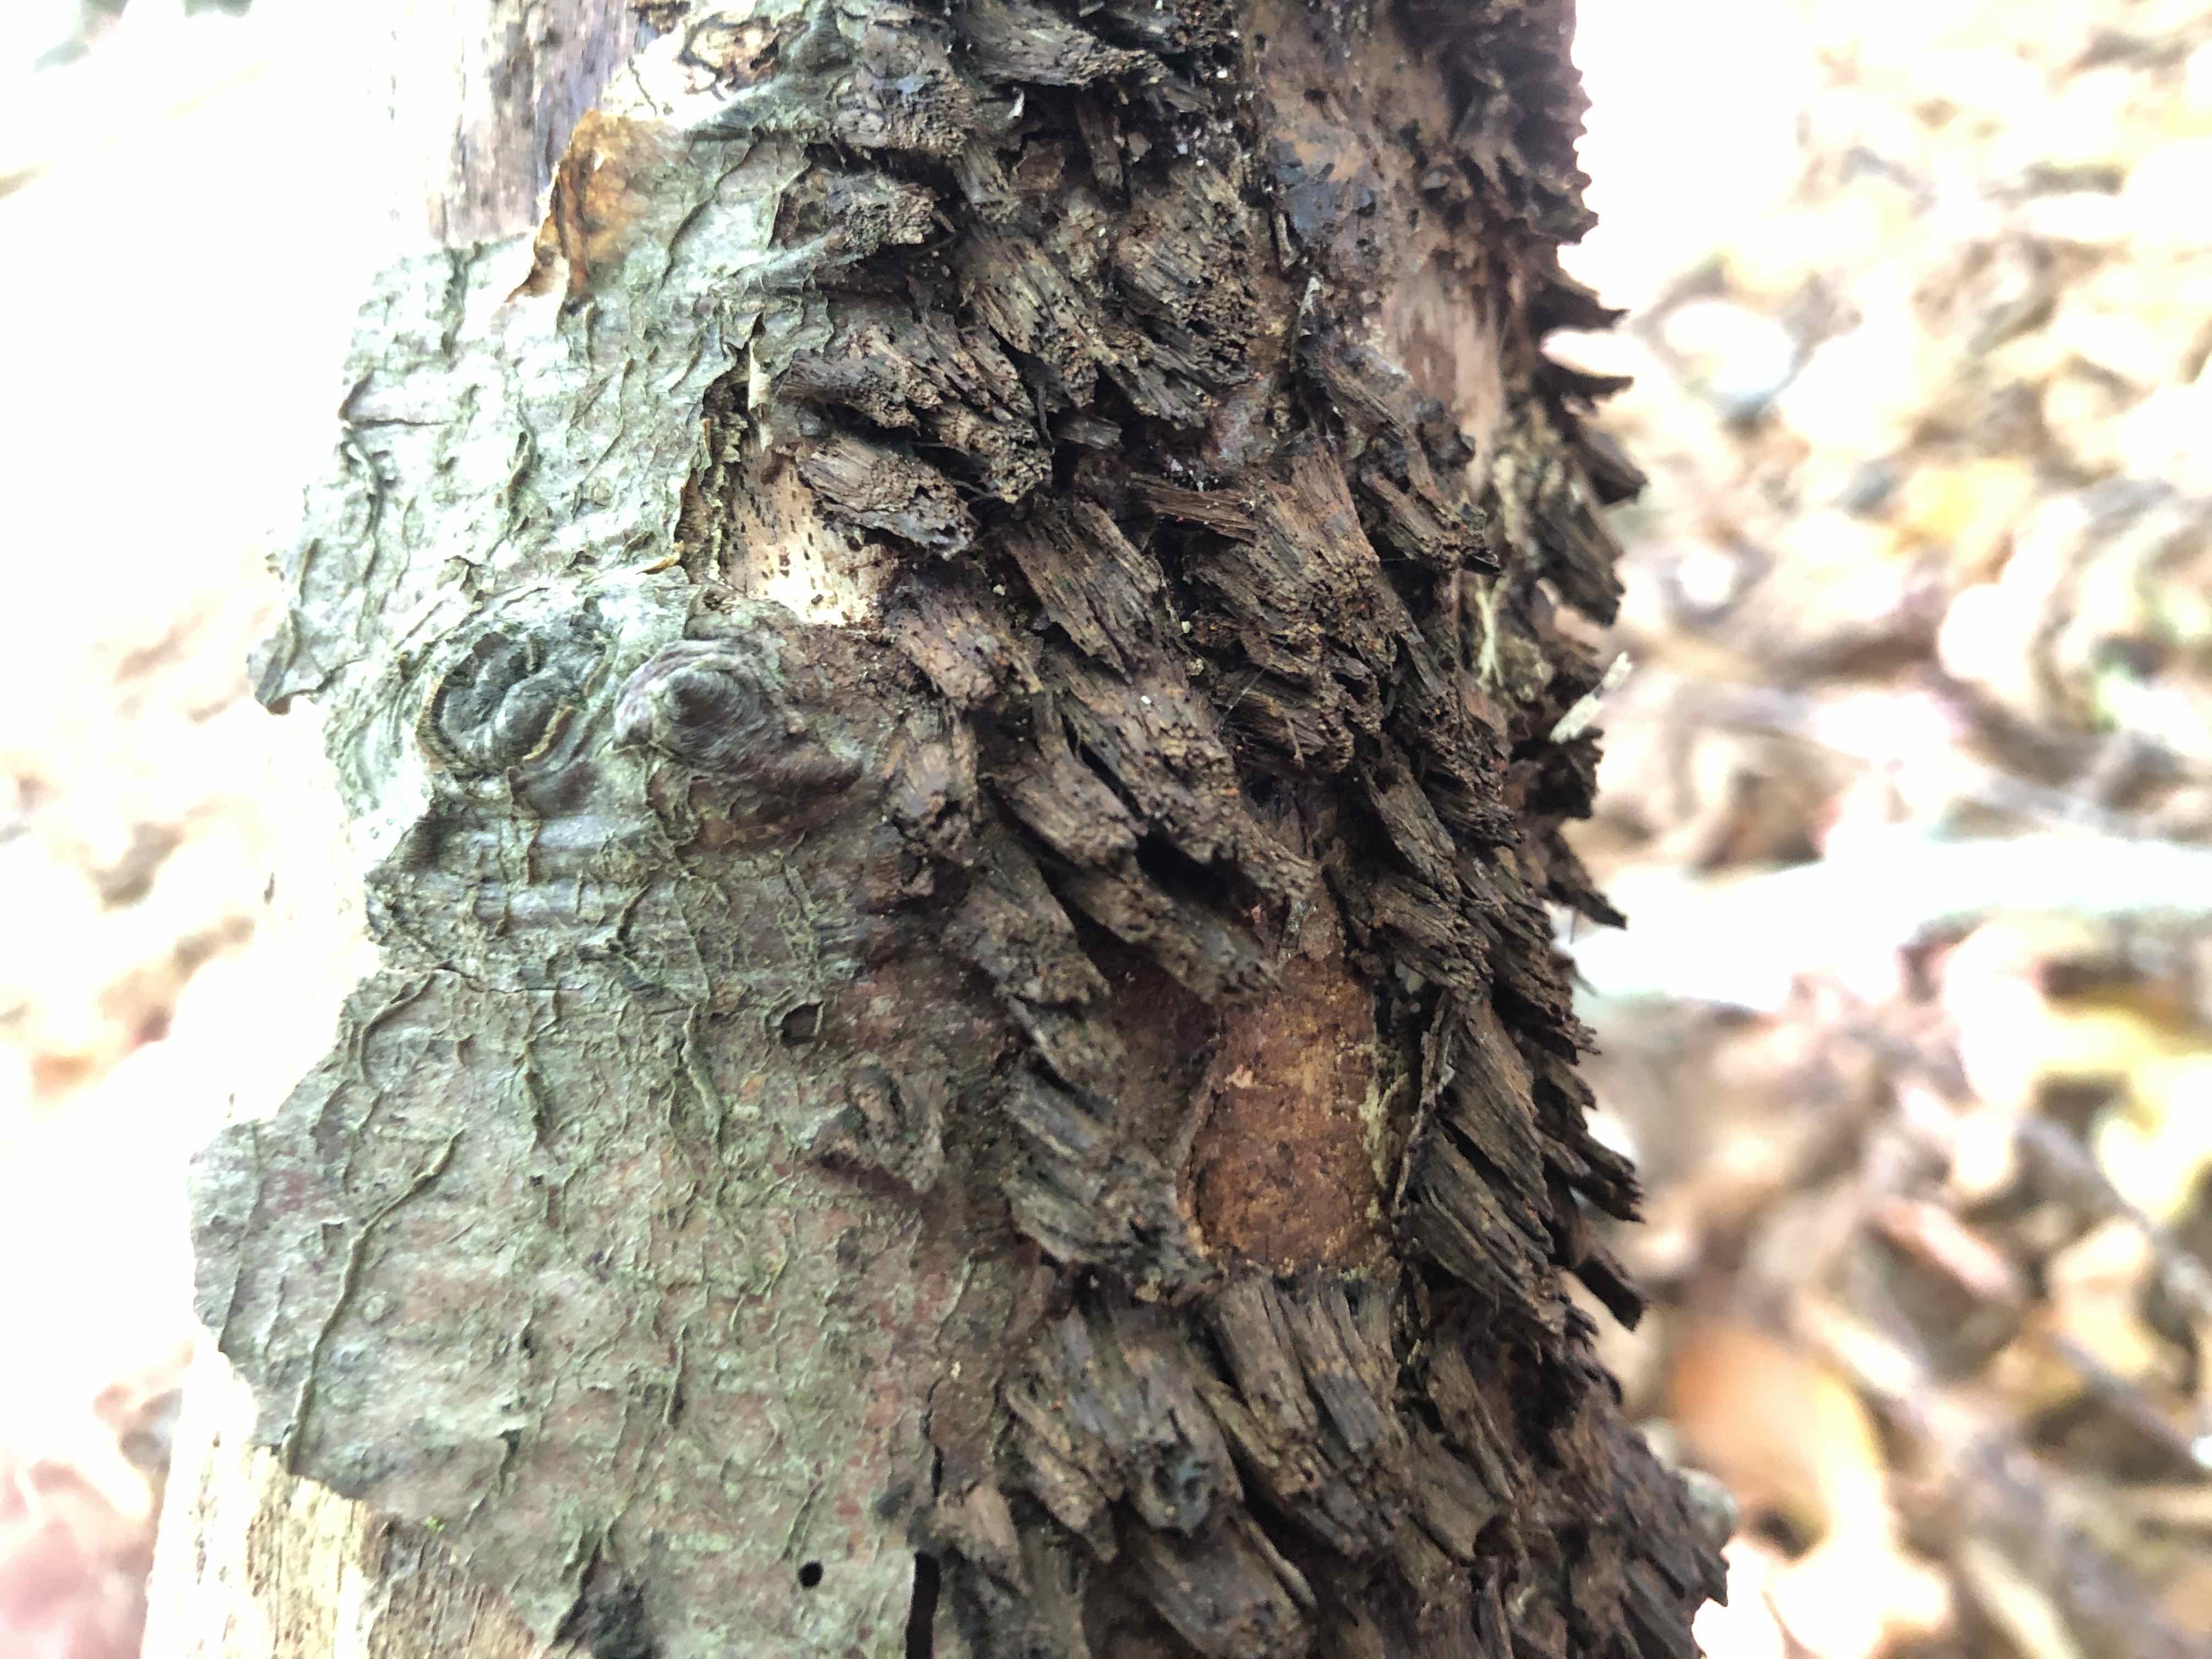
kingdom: Fungi
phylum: Basidiomycota
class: Agaricomycetes
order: Hymenochaetales
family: Hymenochaetaceae
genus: Mensularia
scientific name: Mensularia nodulosa
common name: bøge-spejlporesvamp
